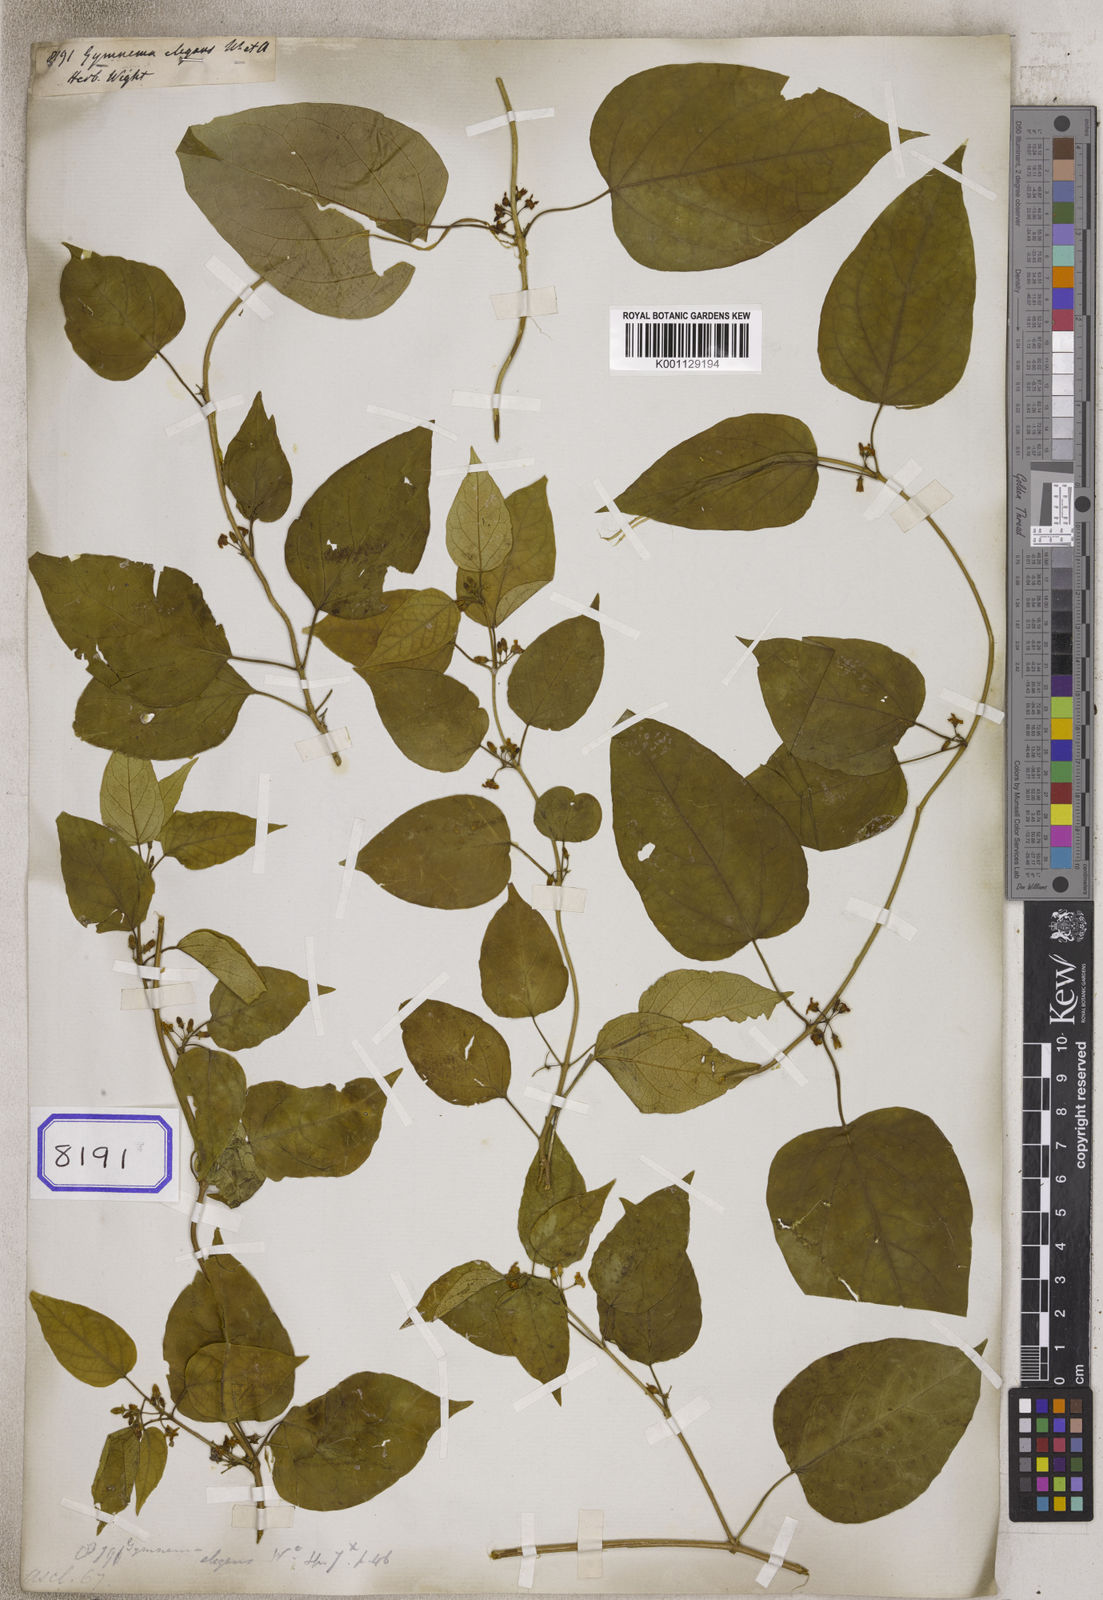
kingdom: Plantae
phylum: Tracheophyta
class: Magnoliopsida
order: Gentianales
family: Apocynaceae
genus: Gymnema
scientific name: Gymnema elegans
